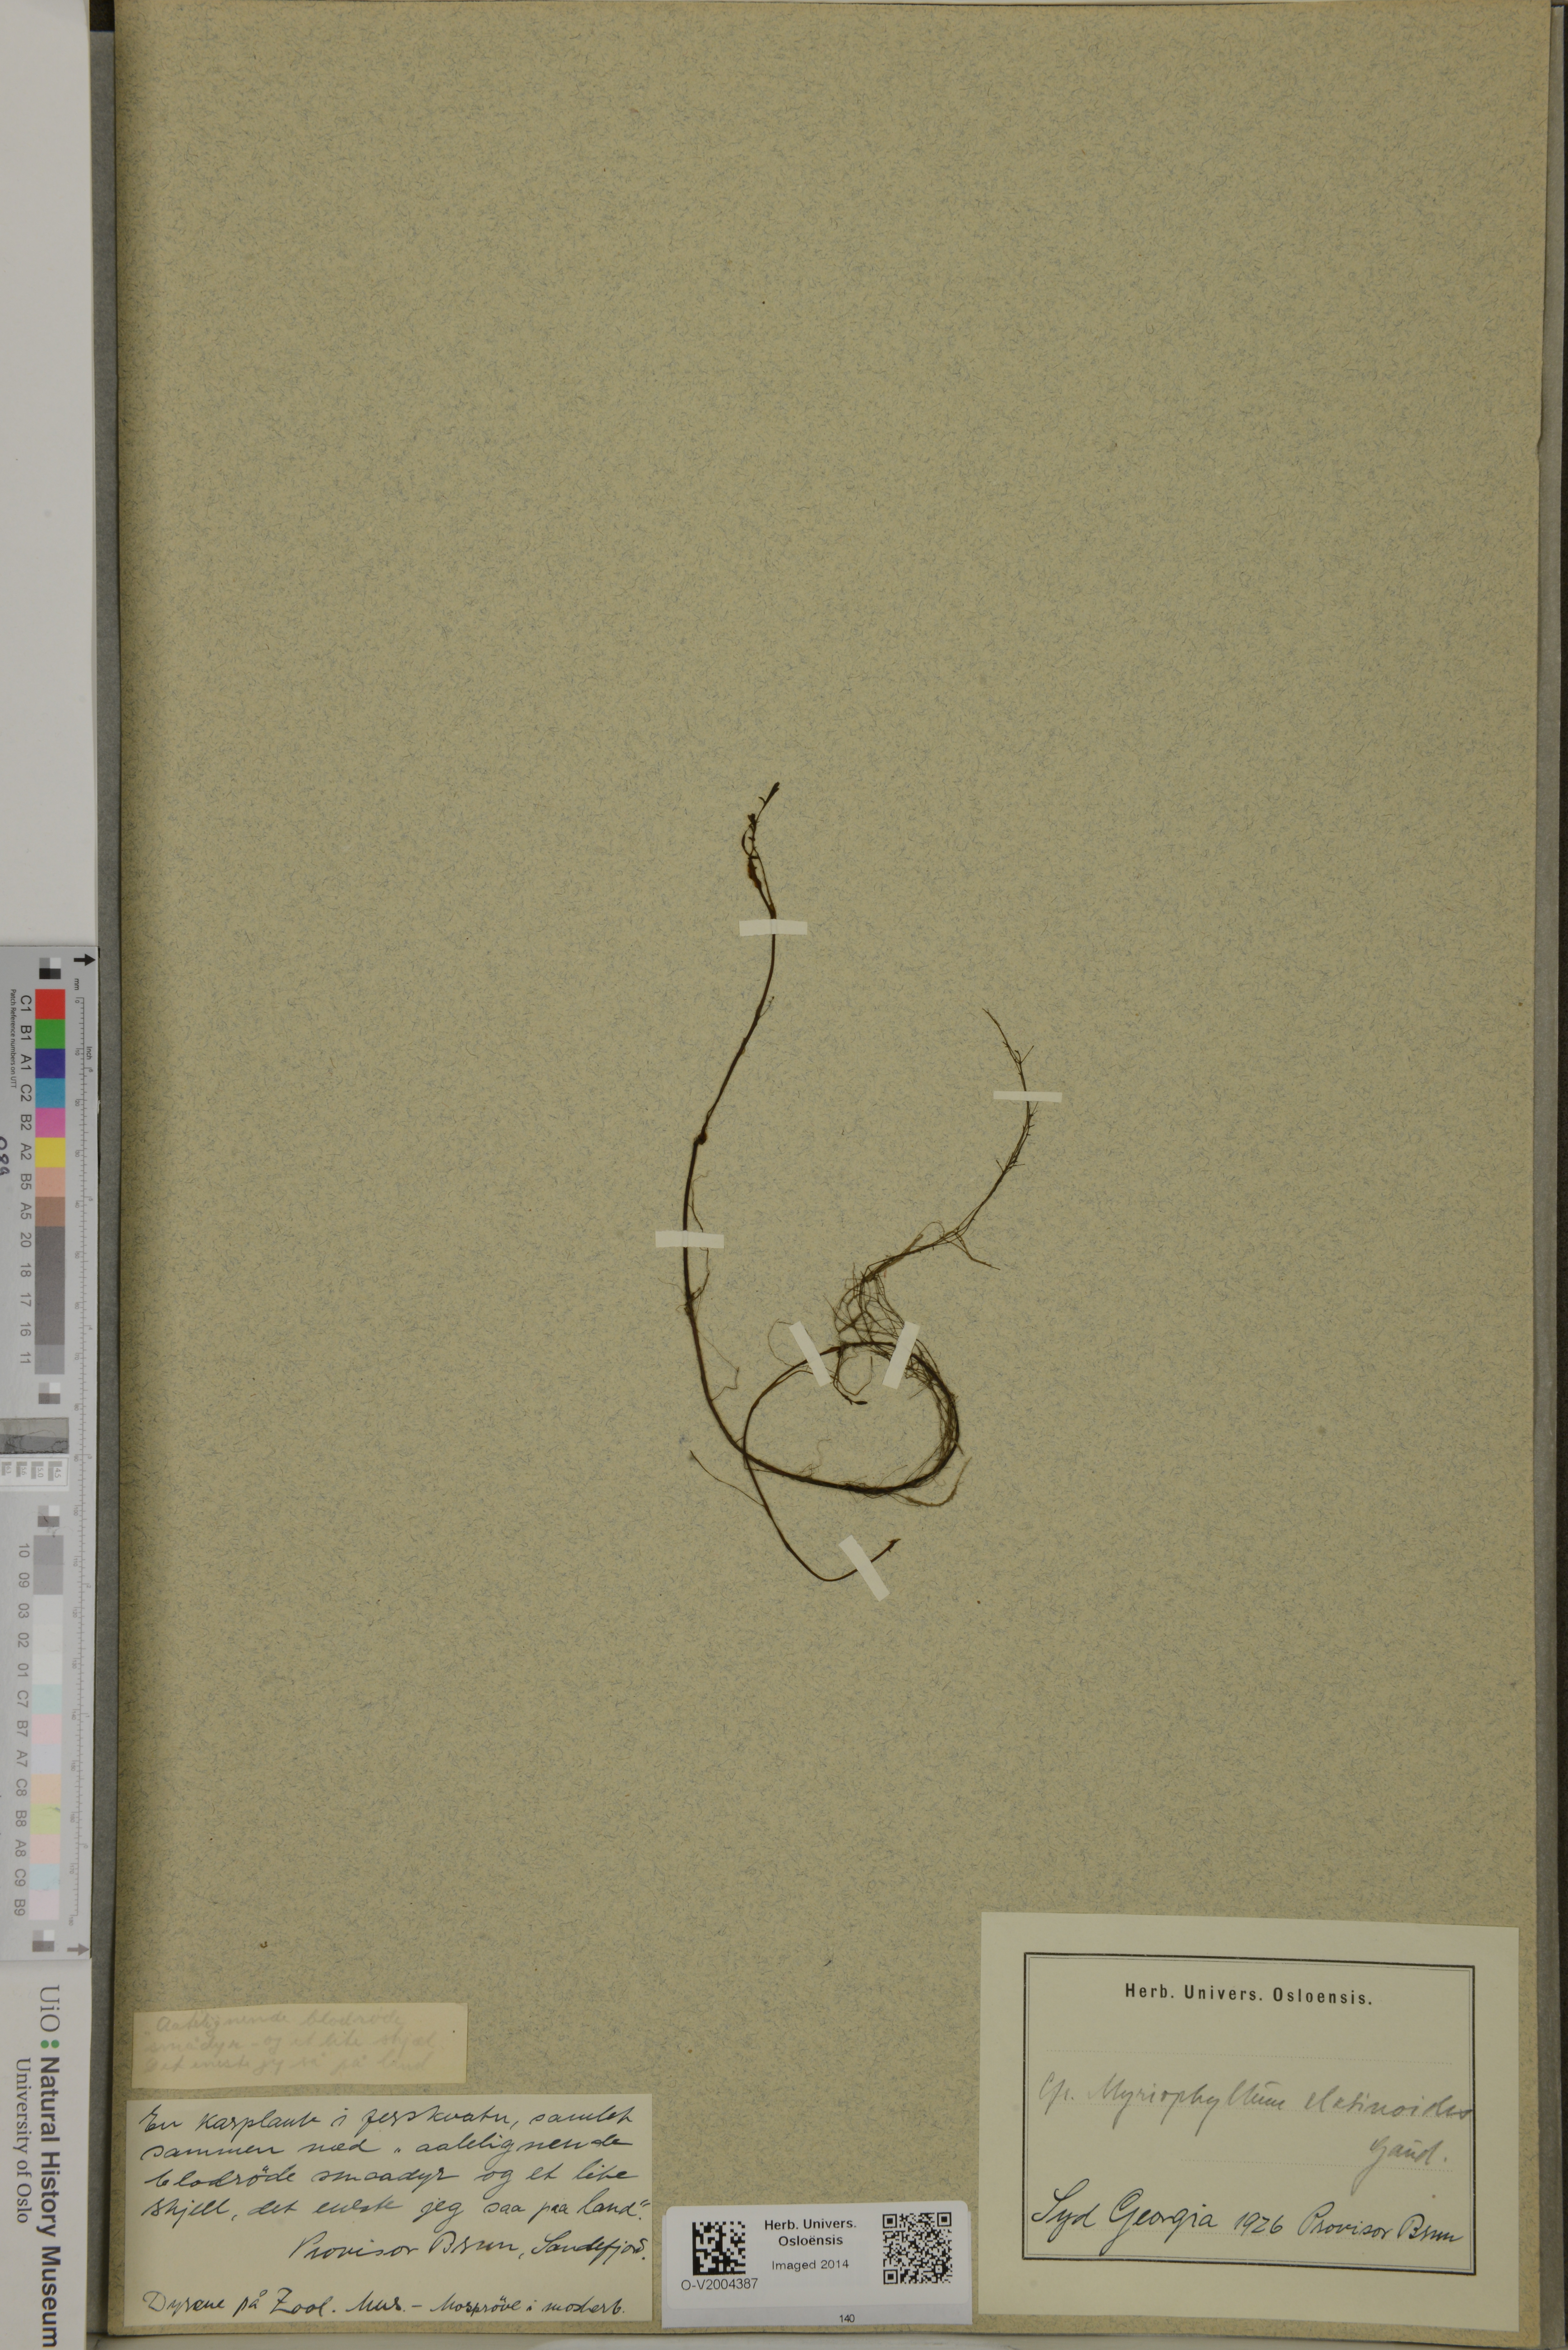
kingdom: Plantae
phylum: Tracheophyta
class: Magnoliopsida
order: Saxifragales
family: Haloragaceae
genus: Myriophyllum
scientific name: Myriophyllum quitense
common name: Andean water milfoil
